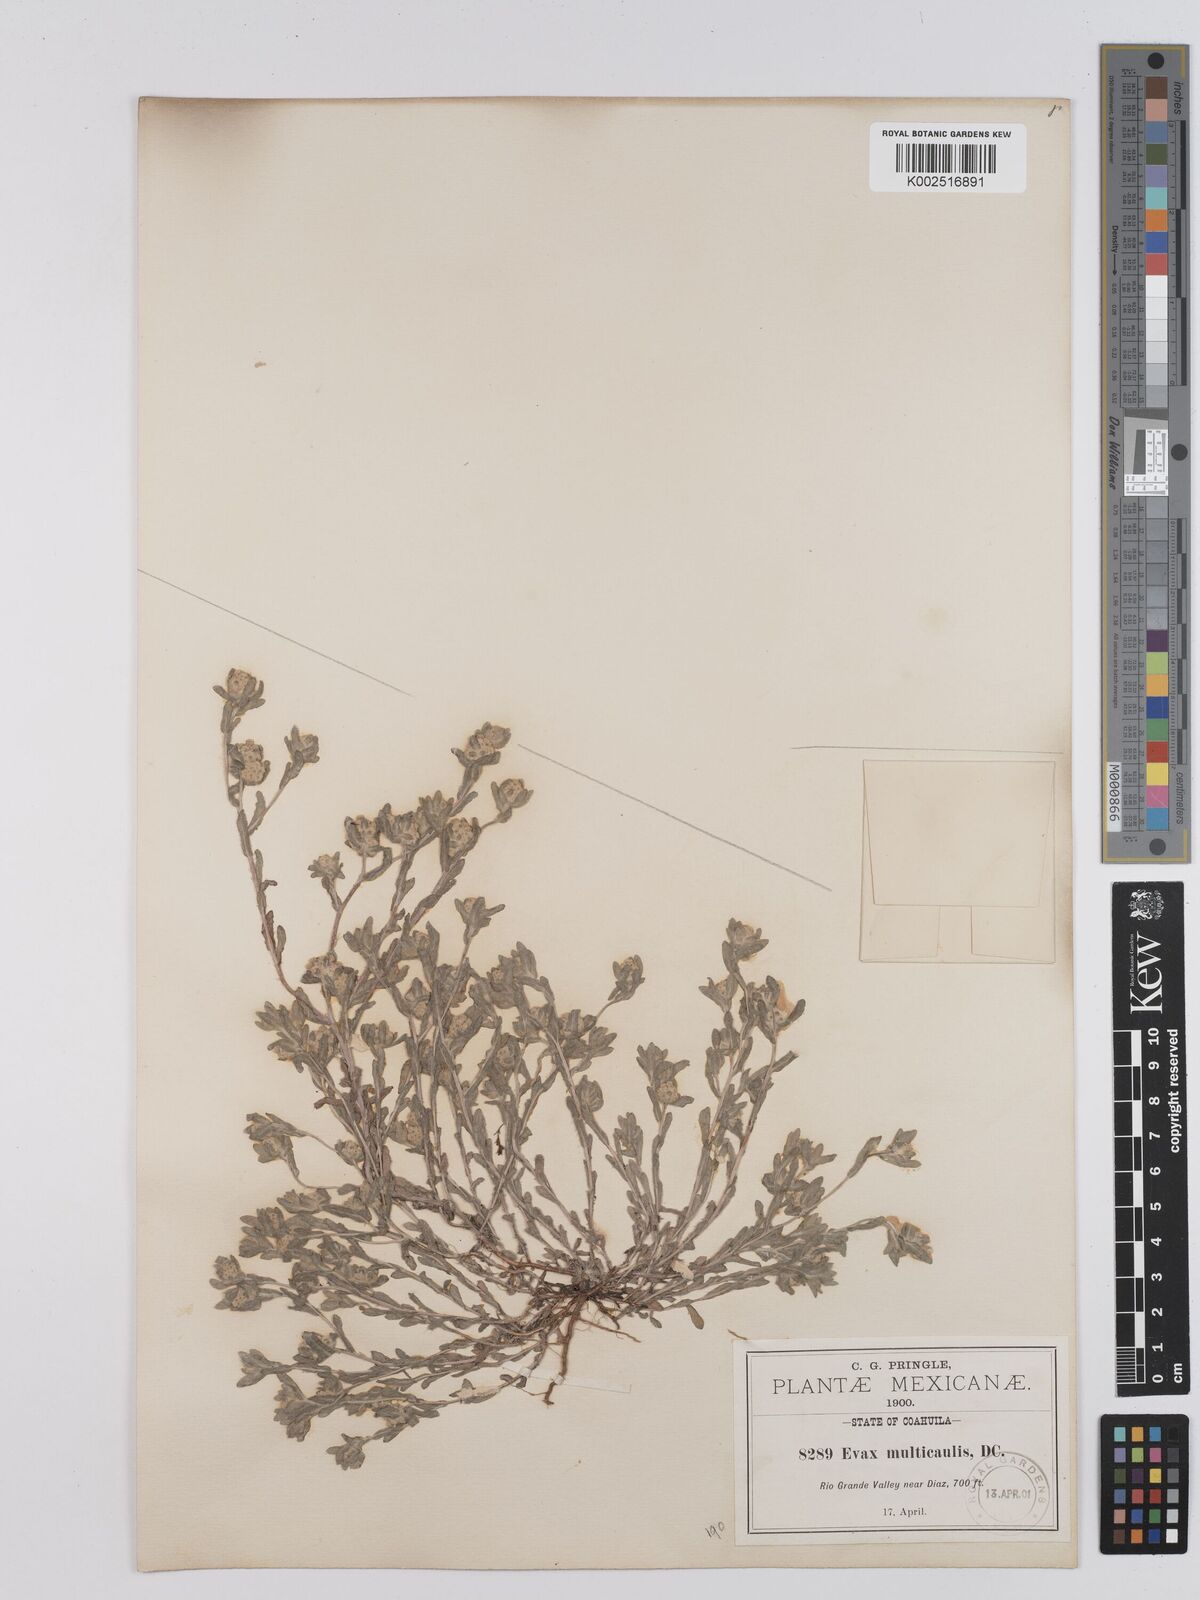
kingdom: Plantae
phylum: Tracheophyta
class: Magnoliopsida
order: Asterales
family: Asteraceae
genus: Bombycilaena
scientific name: Bombycilaena erecta
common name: Micropus
